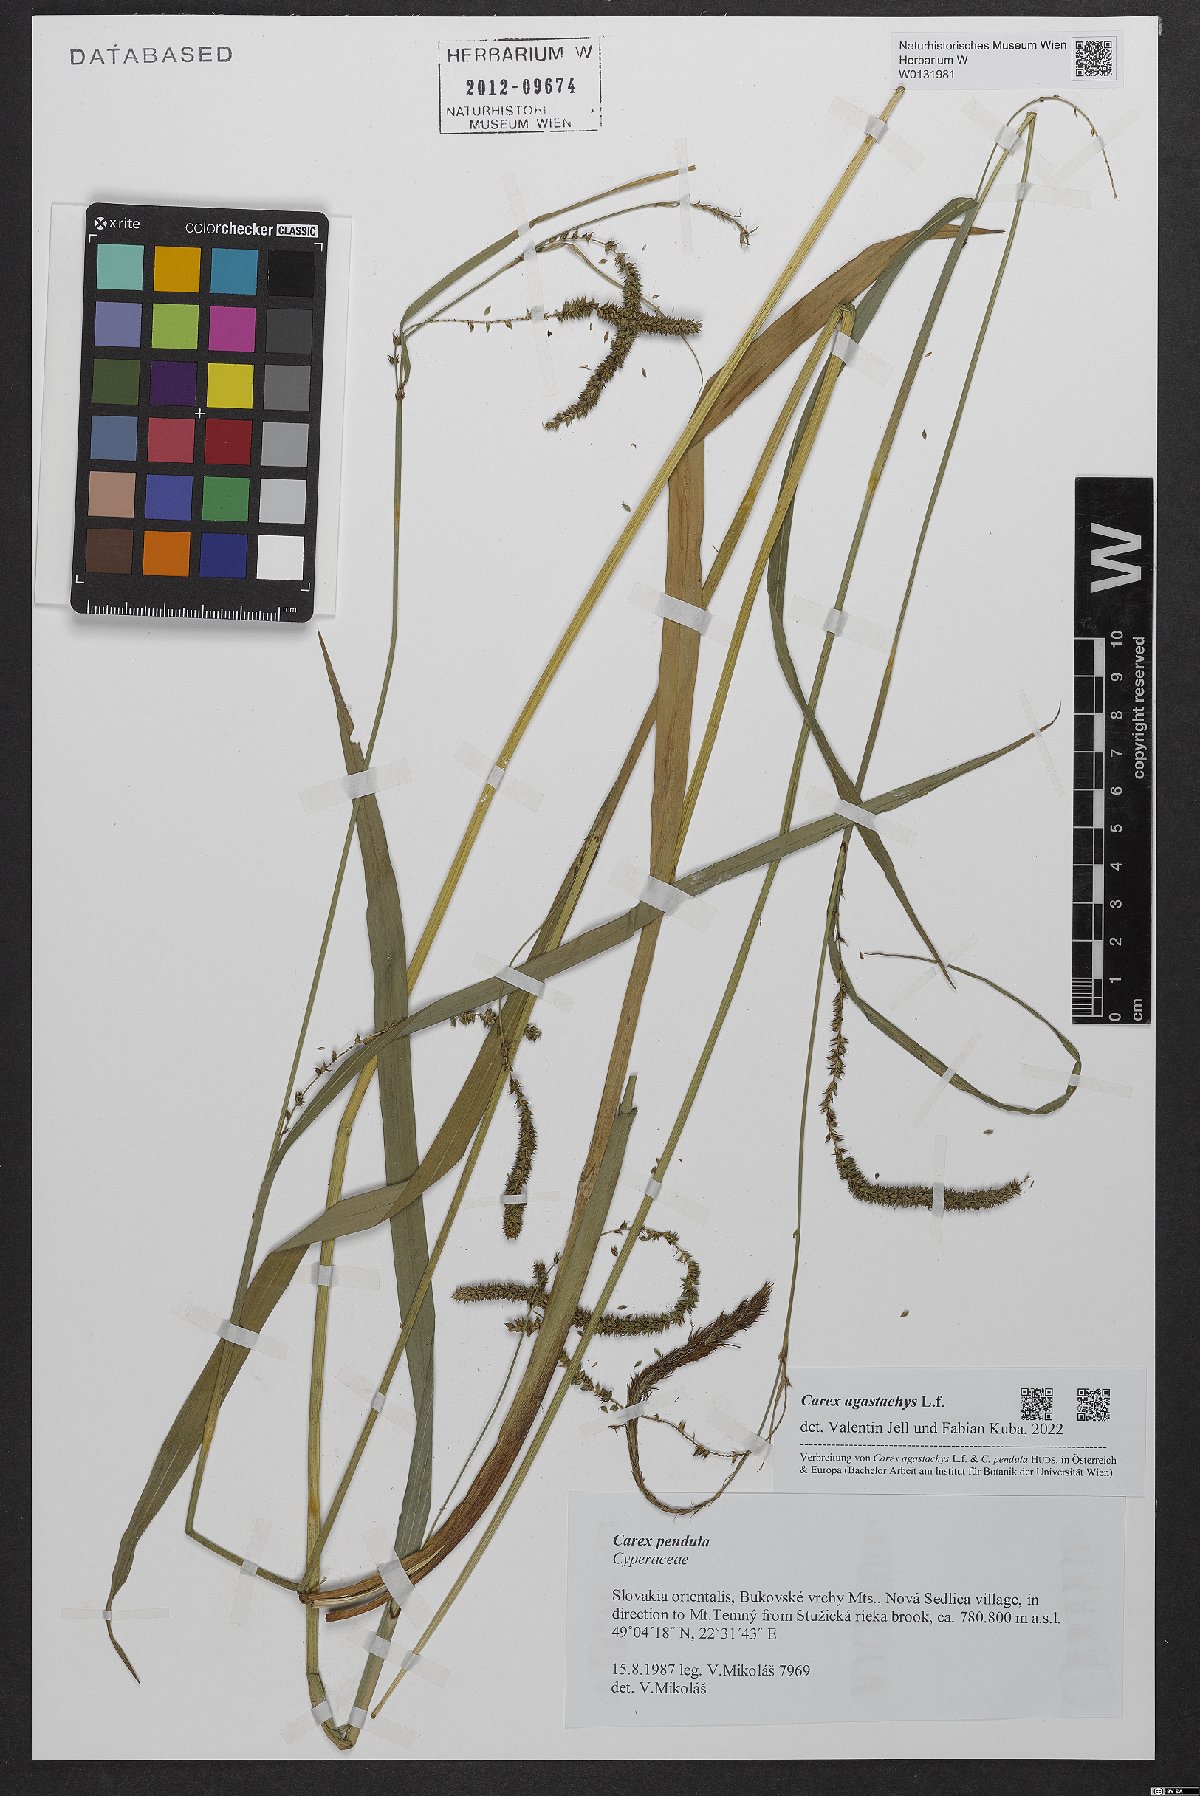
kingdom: Plantae
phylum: Tracheophyta
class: Liliopsida
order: Poales
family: Cyperaceae
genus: Carex
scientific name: Carex agastachys
